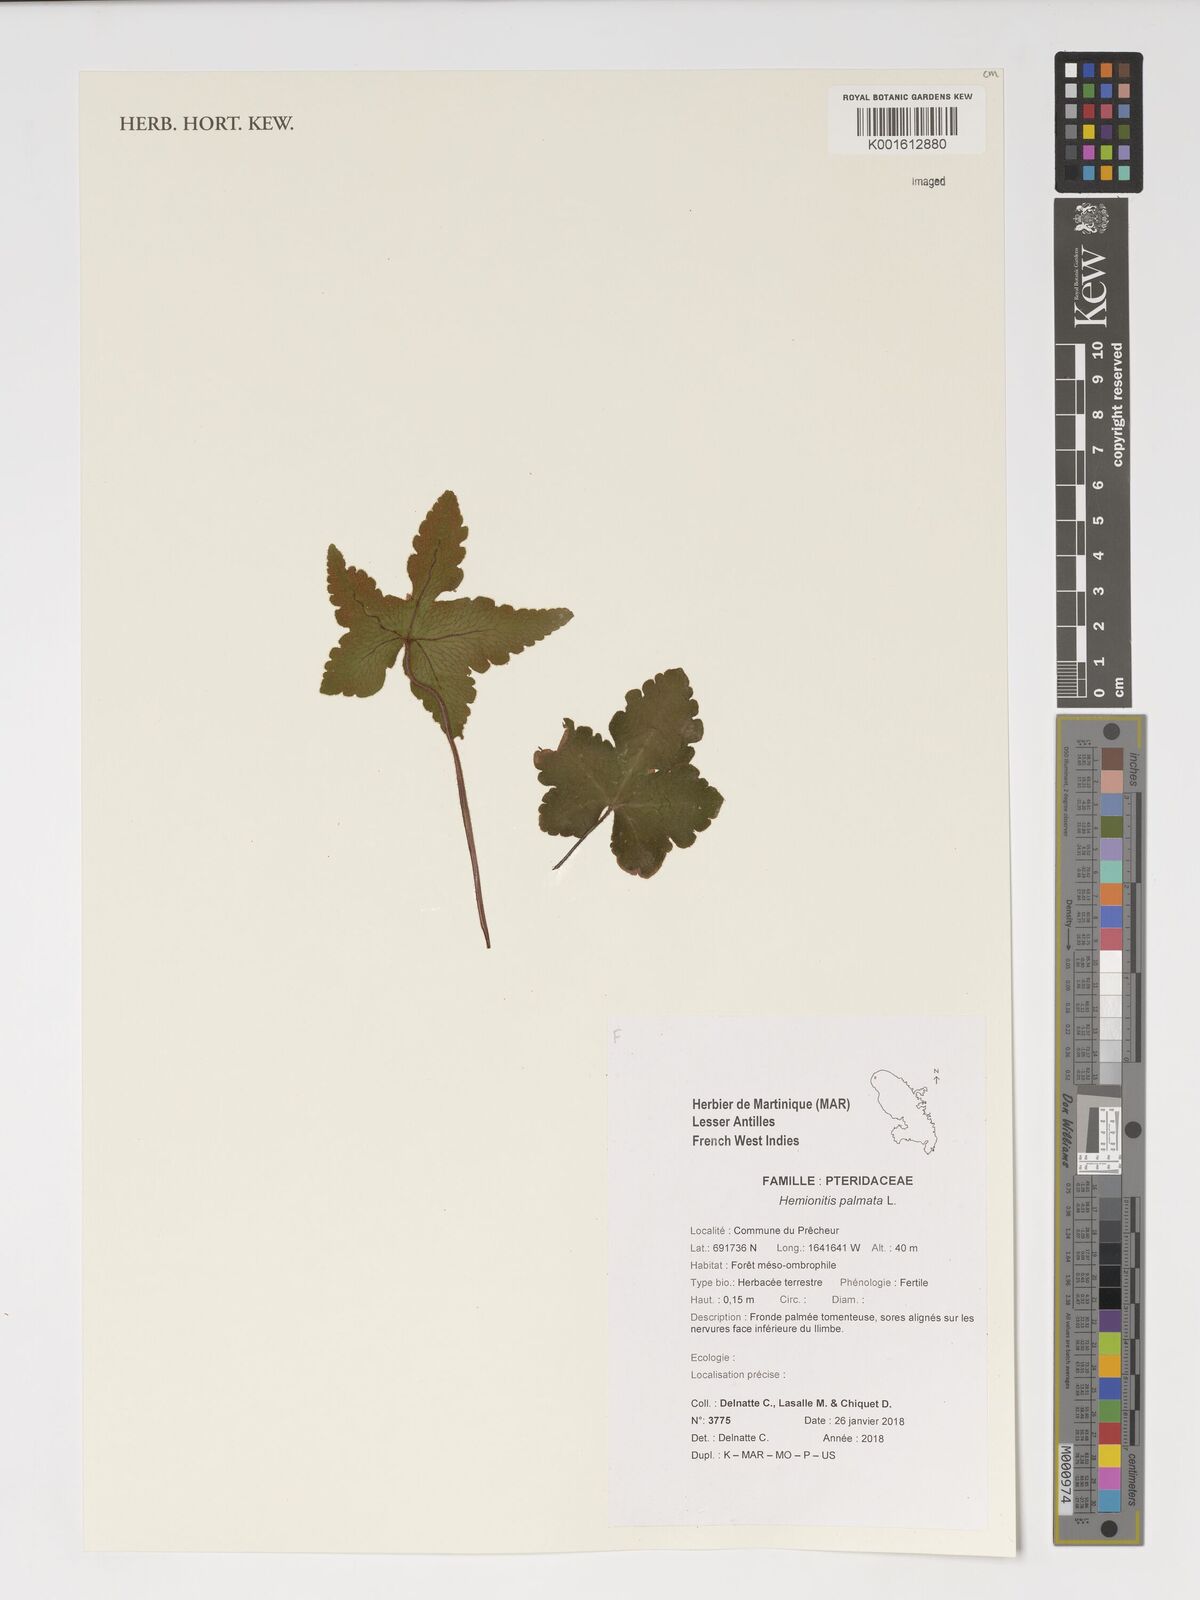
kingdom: Plantae
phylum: Tracheophyta
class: Polypodiopsida
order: Polypodiales
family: Pteridaceae
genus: Hemionitis
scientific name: Hemionitis palmata
